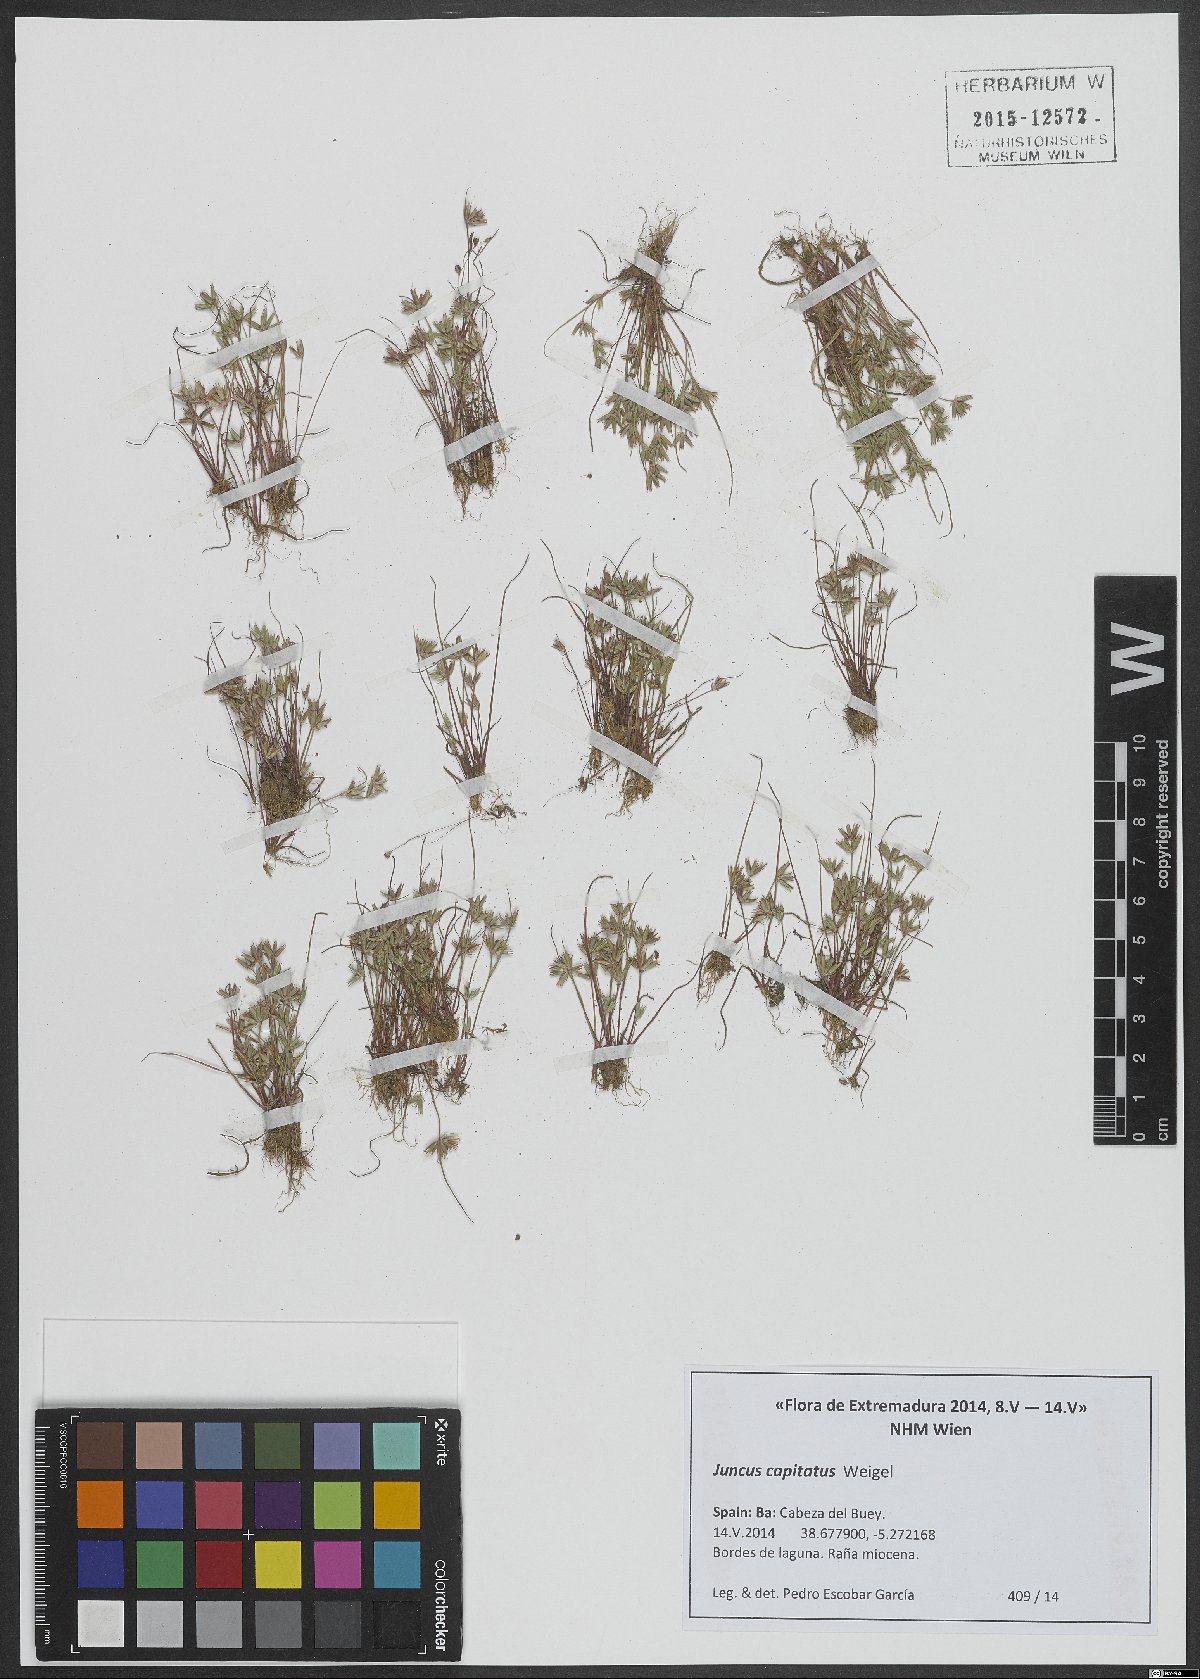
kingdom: Plantae
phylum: Tracheophyta
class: Liliopsida
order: Poales
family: Juncaceae
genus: Juncus
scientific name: Juncus capitatus
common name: Dwarf rush
